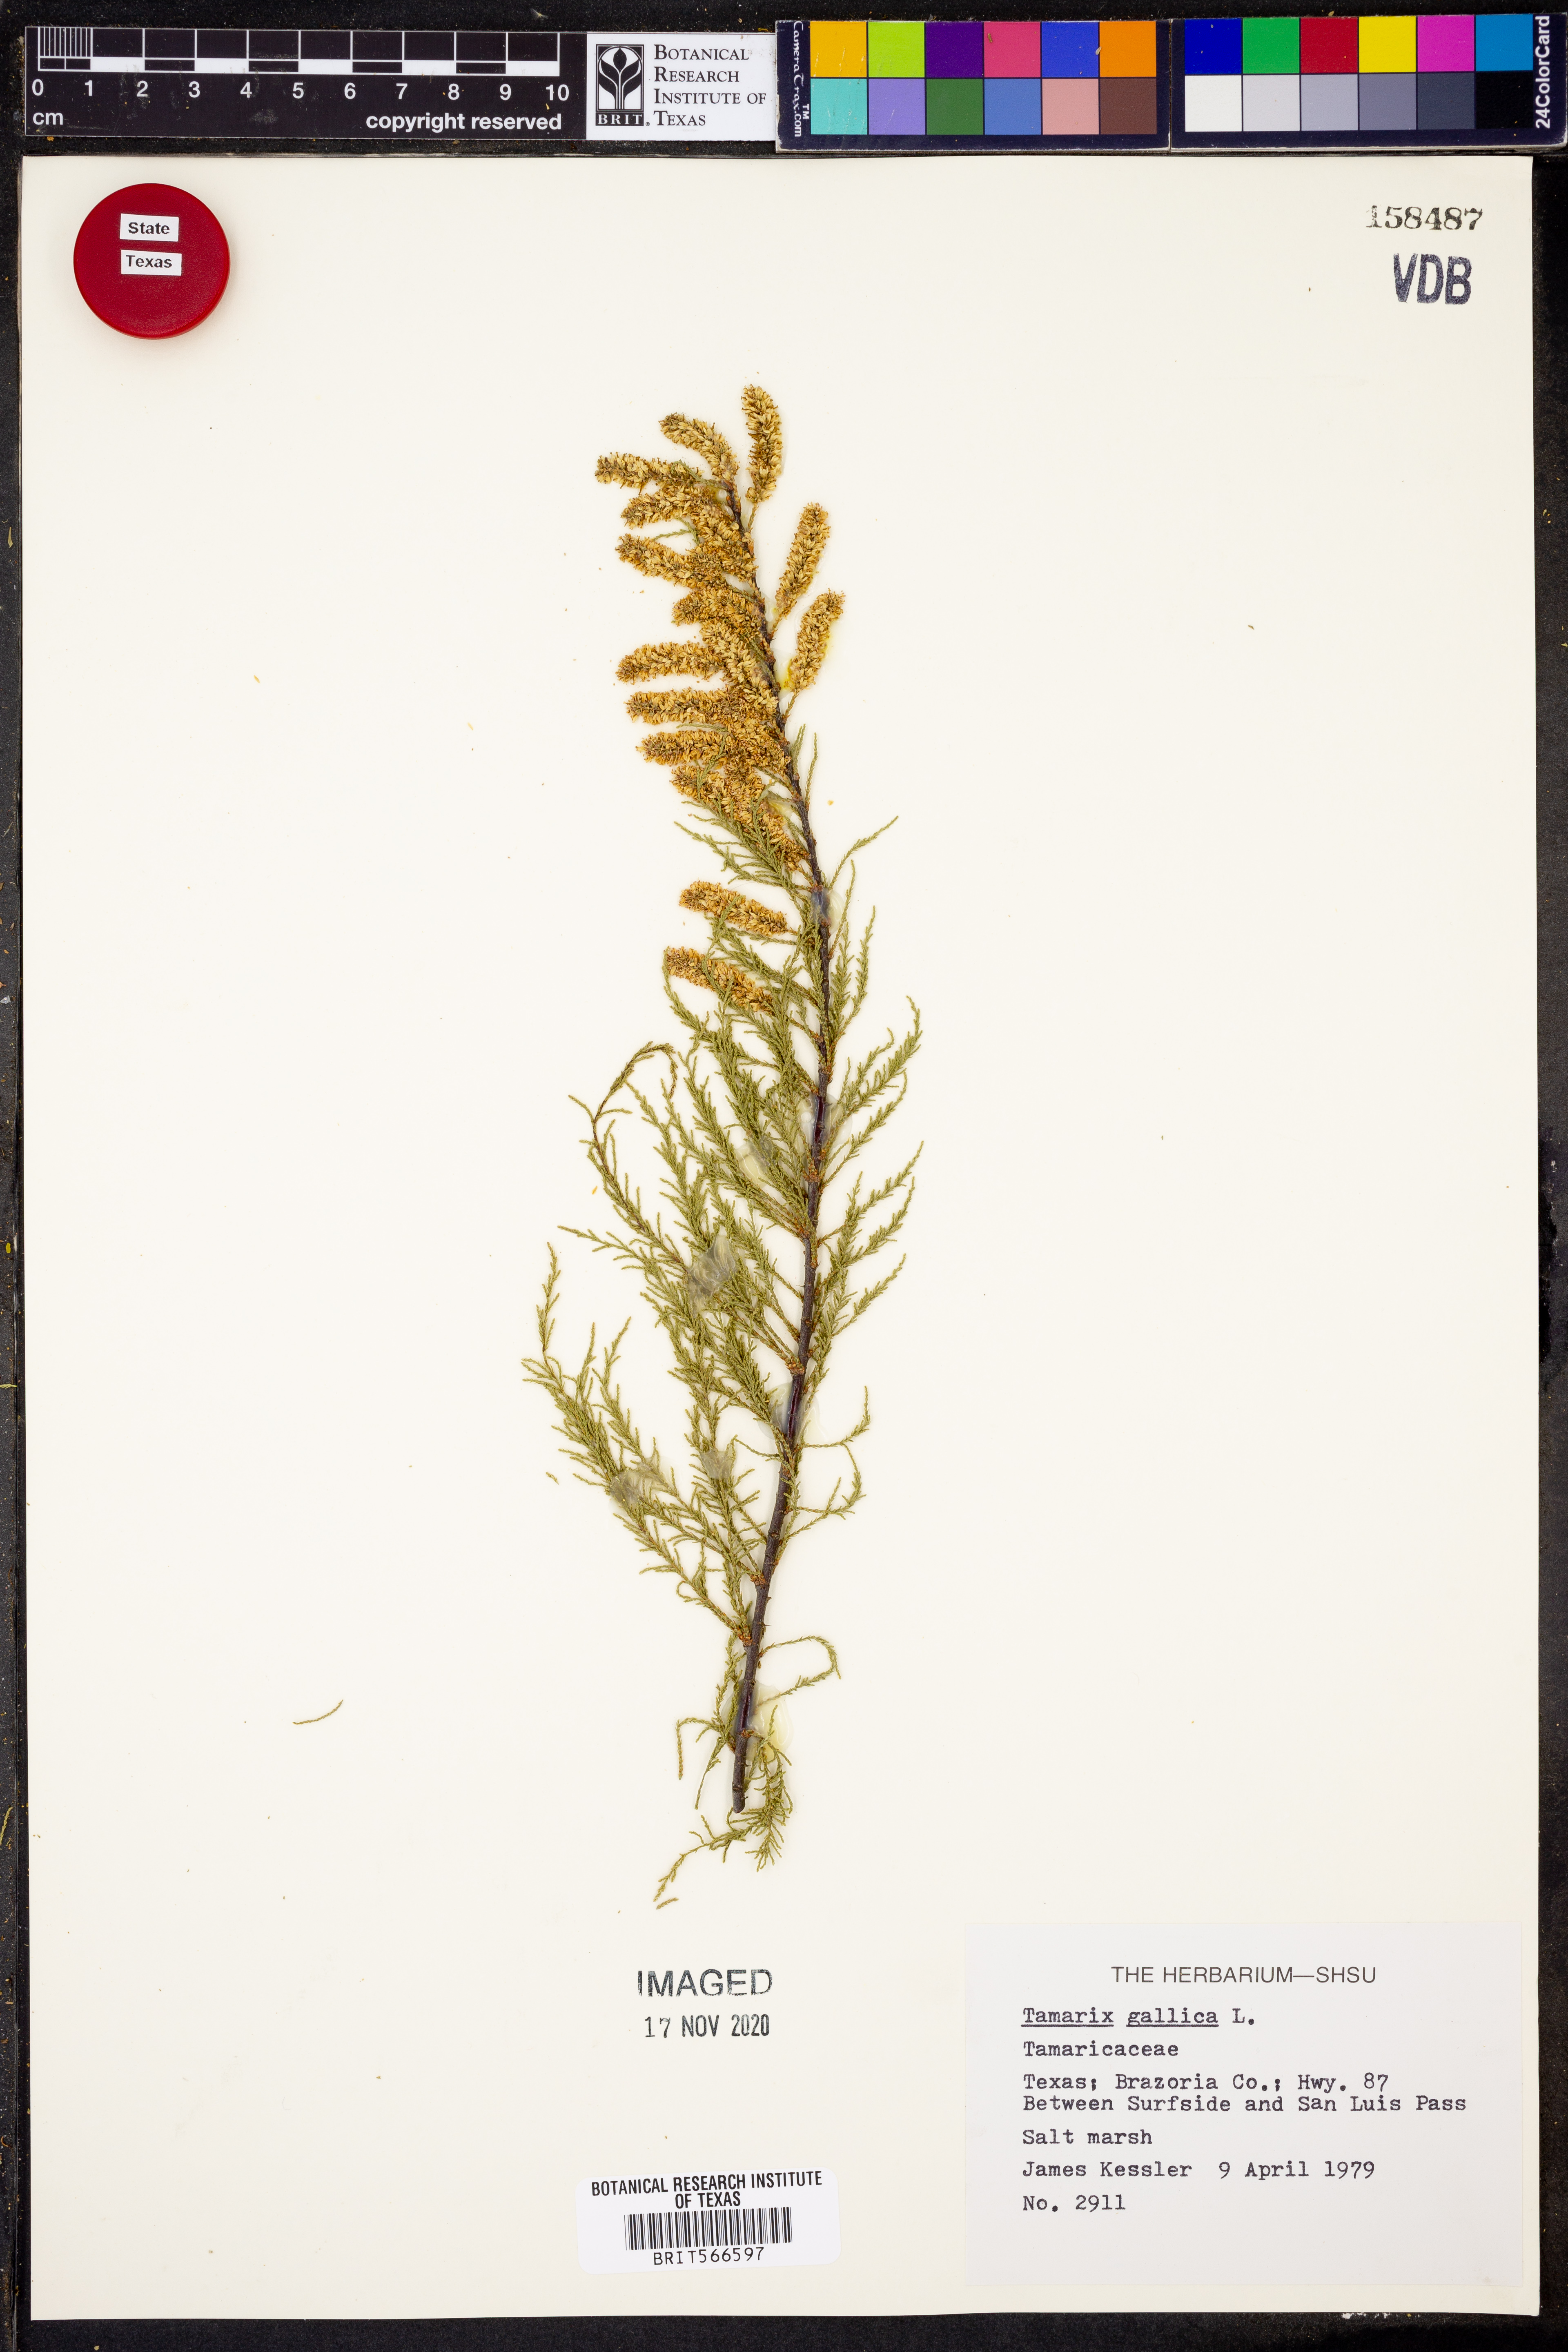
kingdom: Plantae
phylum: Tracheophyta
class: Magnoliopsida
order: Caryophyllales
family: Tamaricaceae
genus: Tamarix
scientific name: Tamarix gallica
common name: Tamarisk
